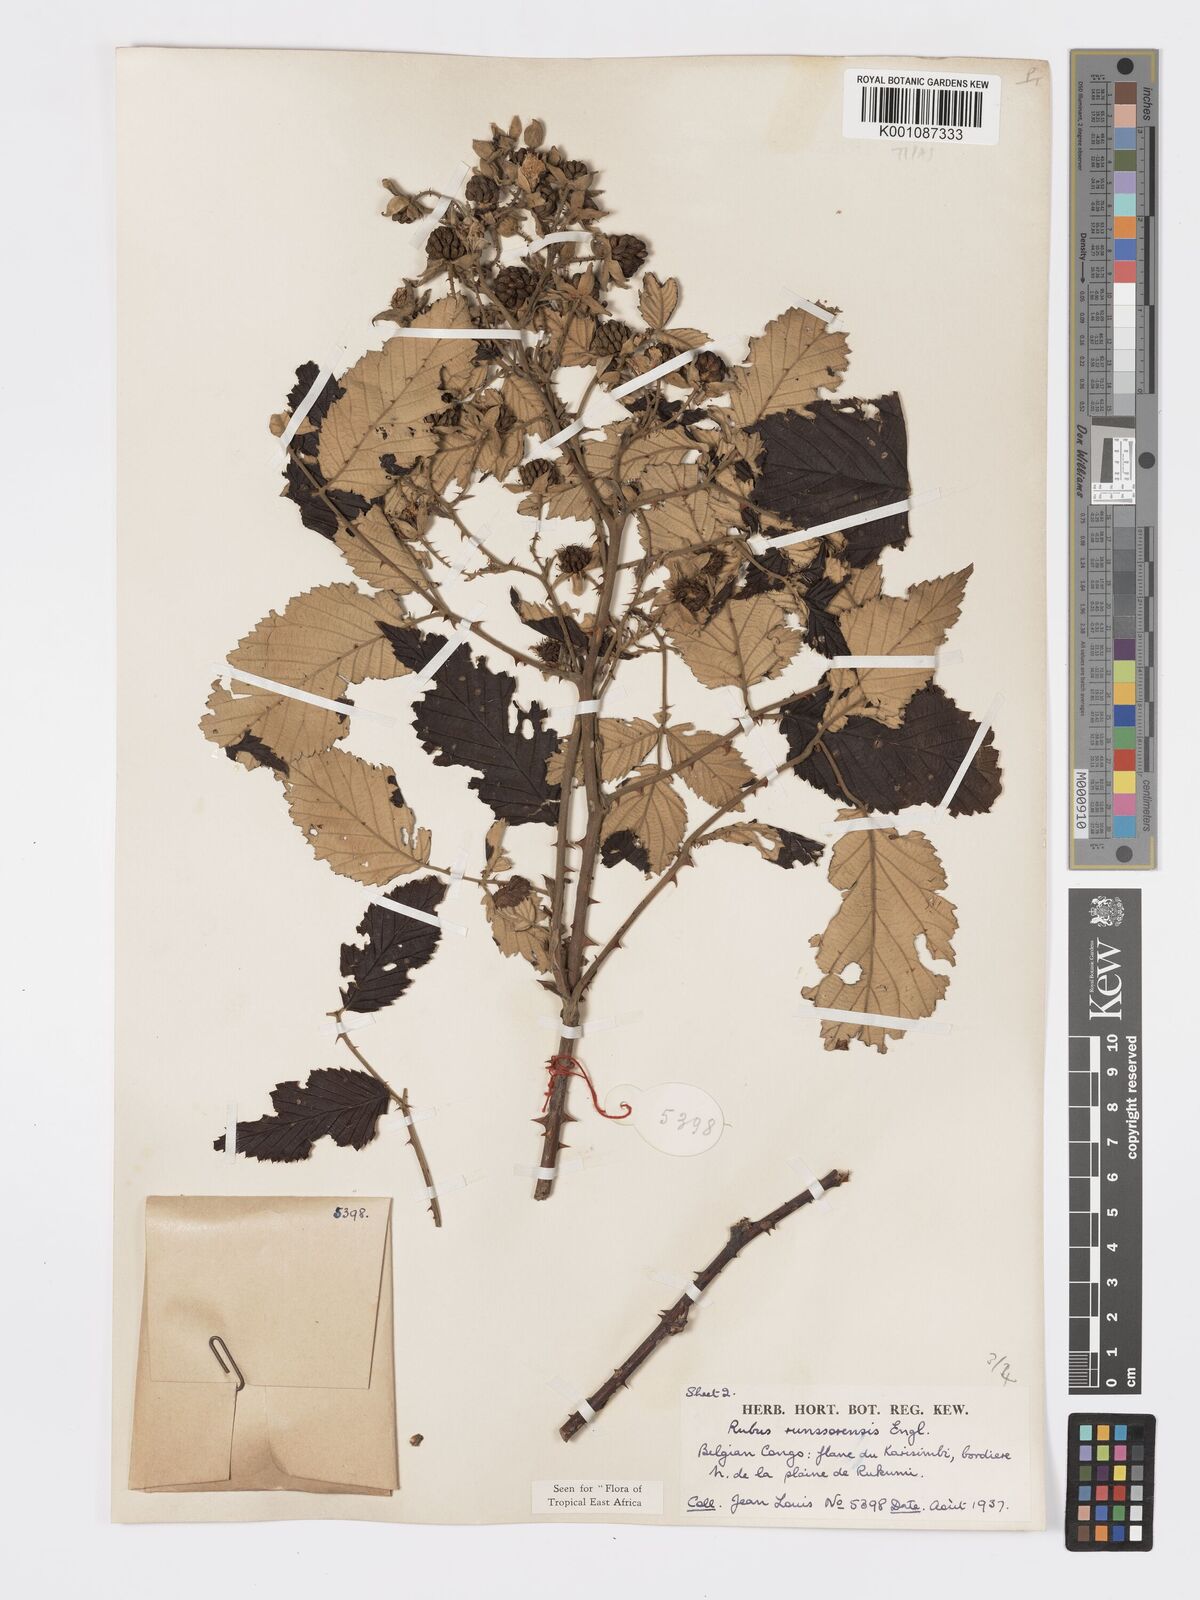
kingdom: Plantae
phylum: Tracheophyta
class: Magnoliopsida
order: Rosales
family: Rosaceae
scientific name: Rosaceae
